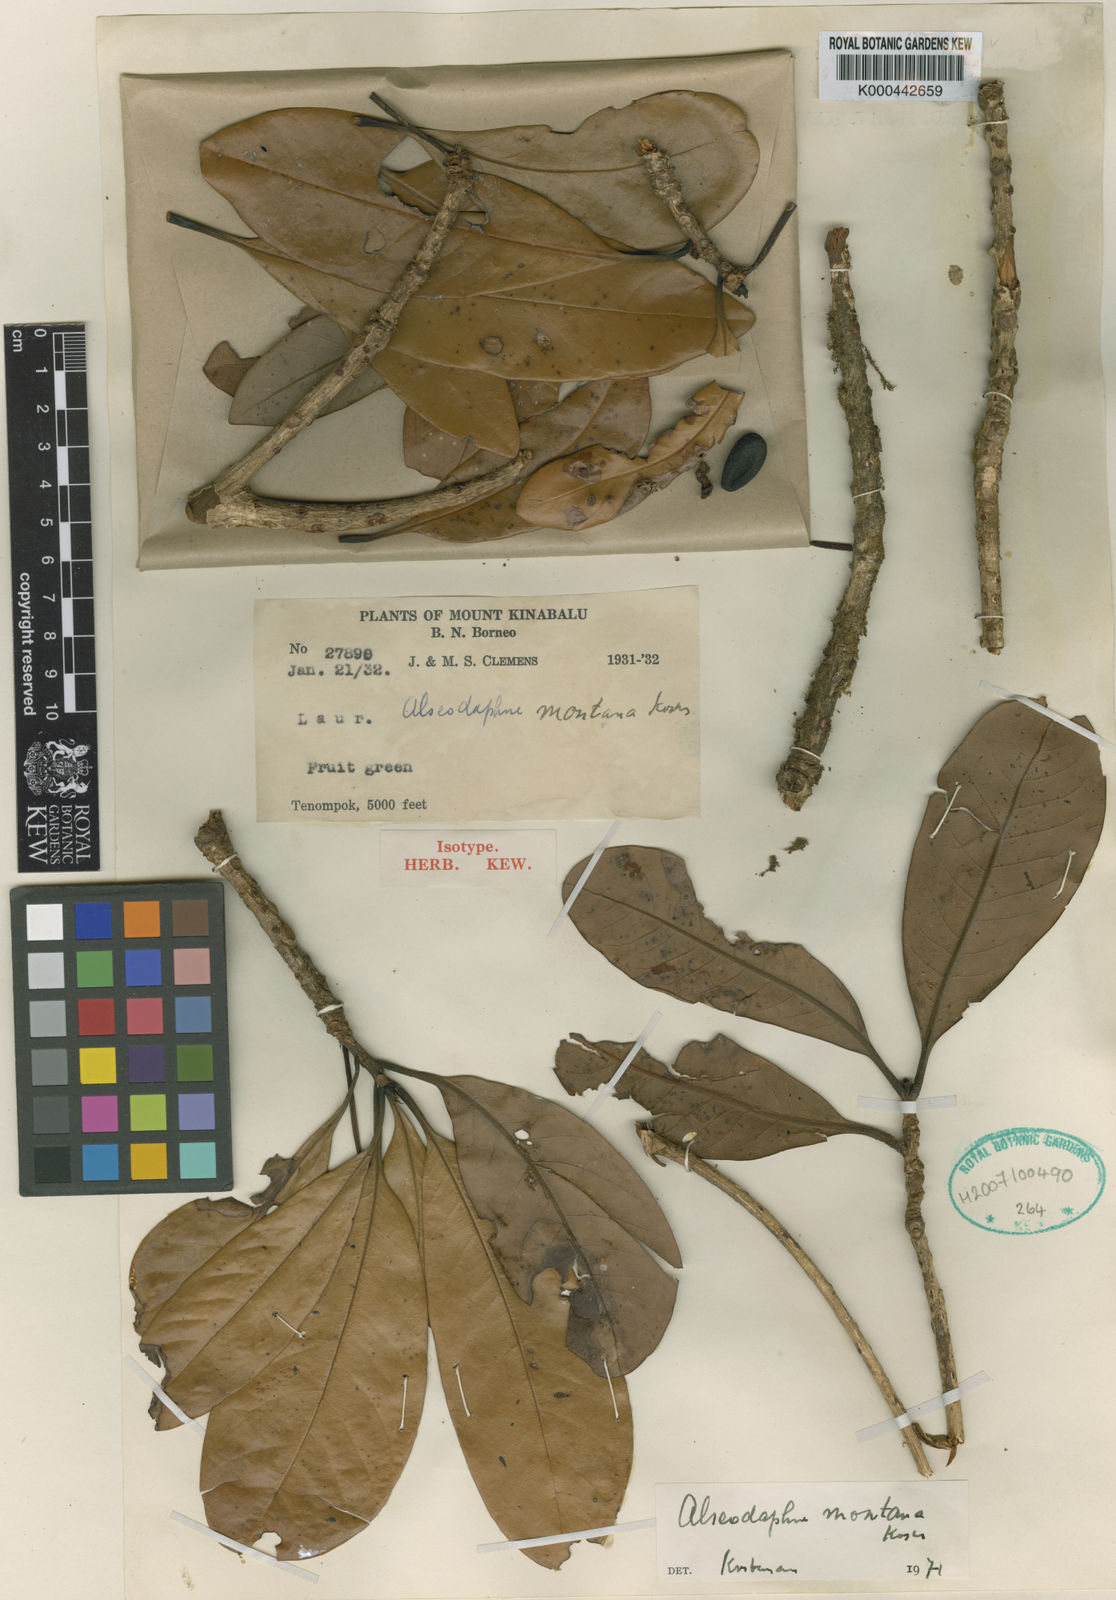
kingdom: Plantae
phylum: Tracheophyta
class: Magnoliopsida
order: Laurales
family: Lauraceae
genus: Alseodaphne
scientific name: Alseodaphne montana
